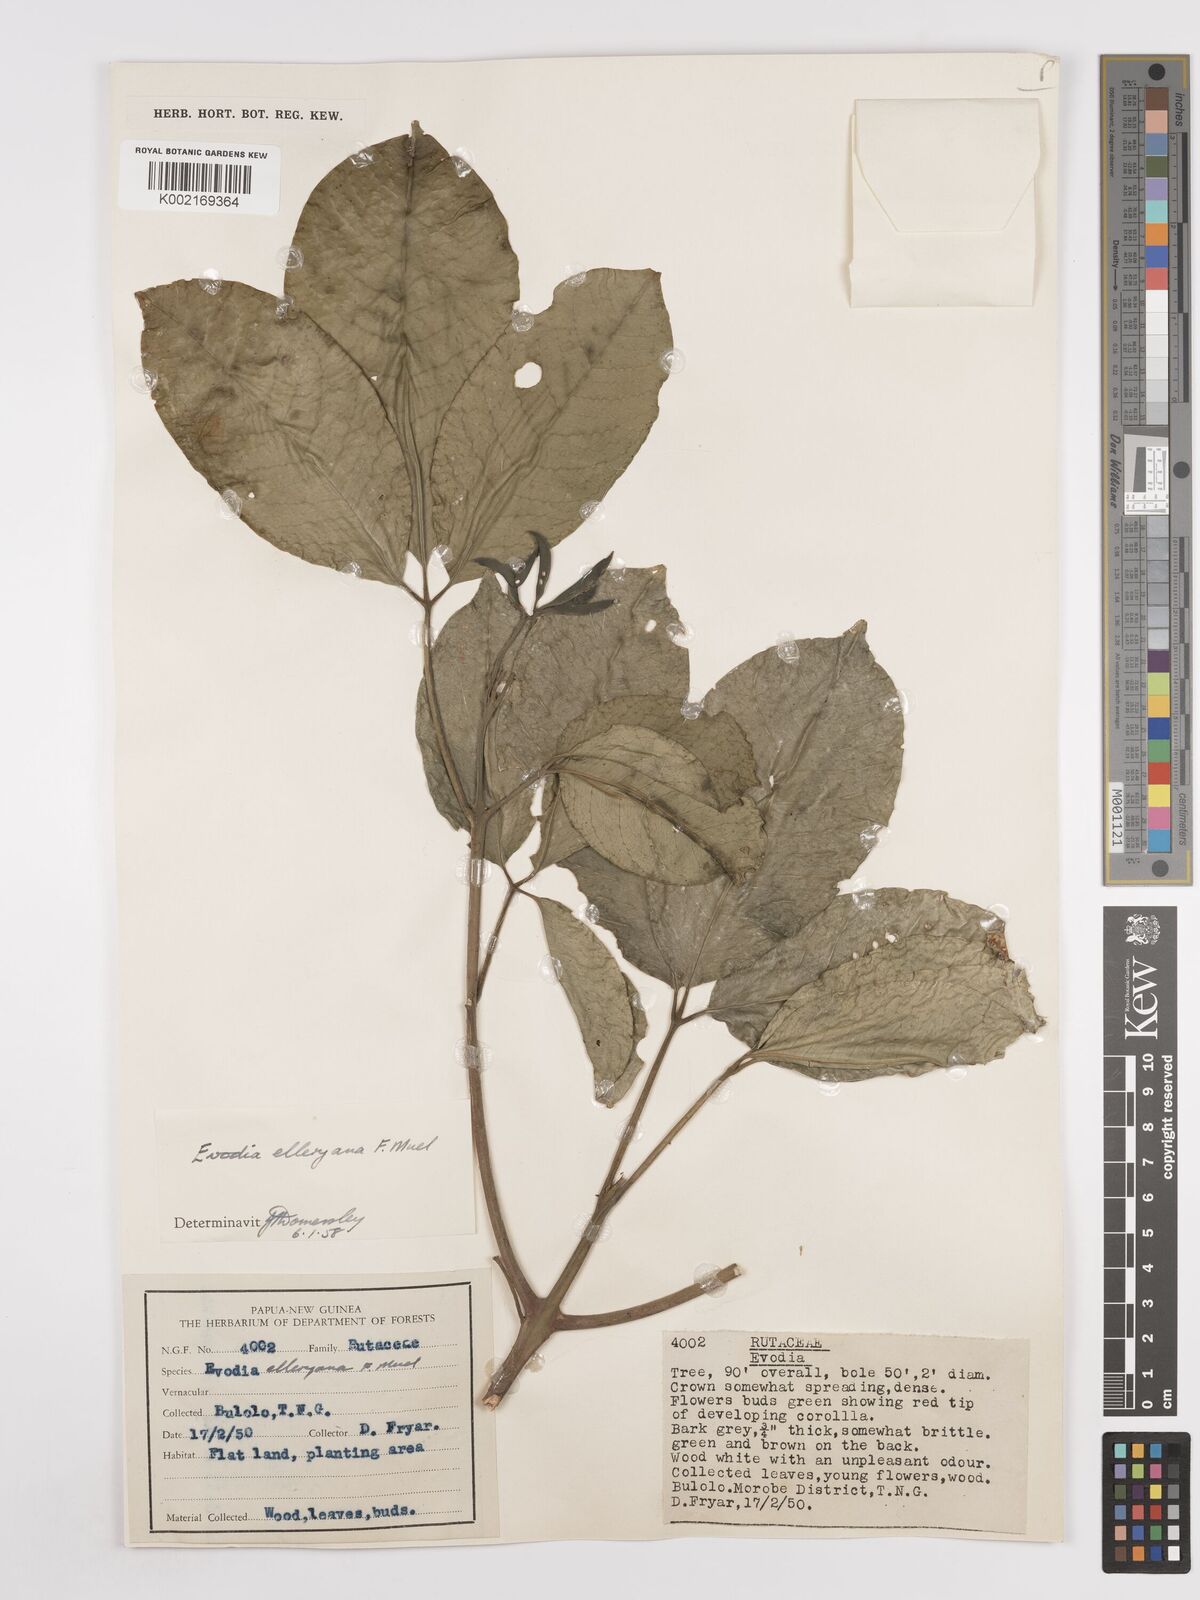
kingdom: Plantae
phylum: Tracheophyta
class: Magnoliopsida
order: Sapindales
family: Rutaceae
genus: Melicope
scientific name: Melicope elleryana
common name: Pink euodia
